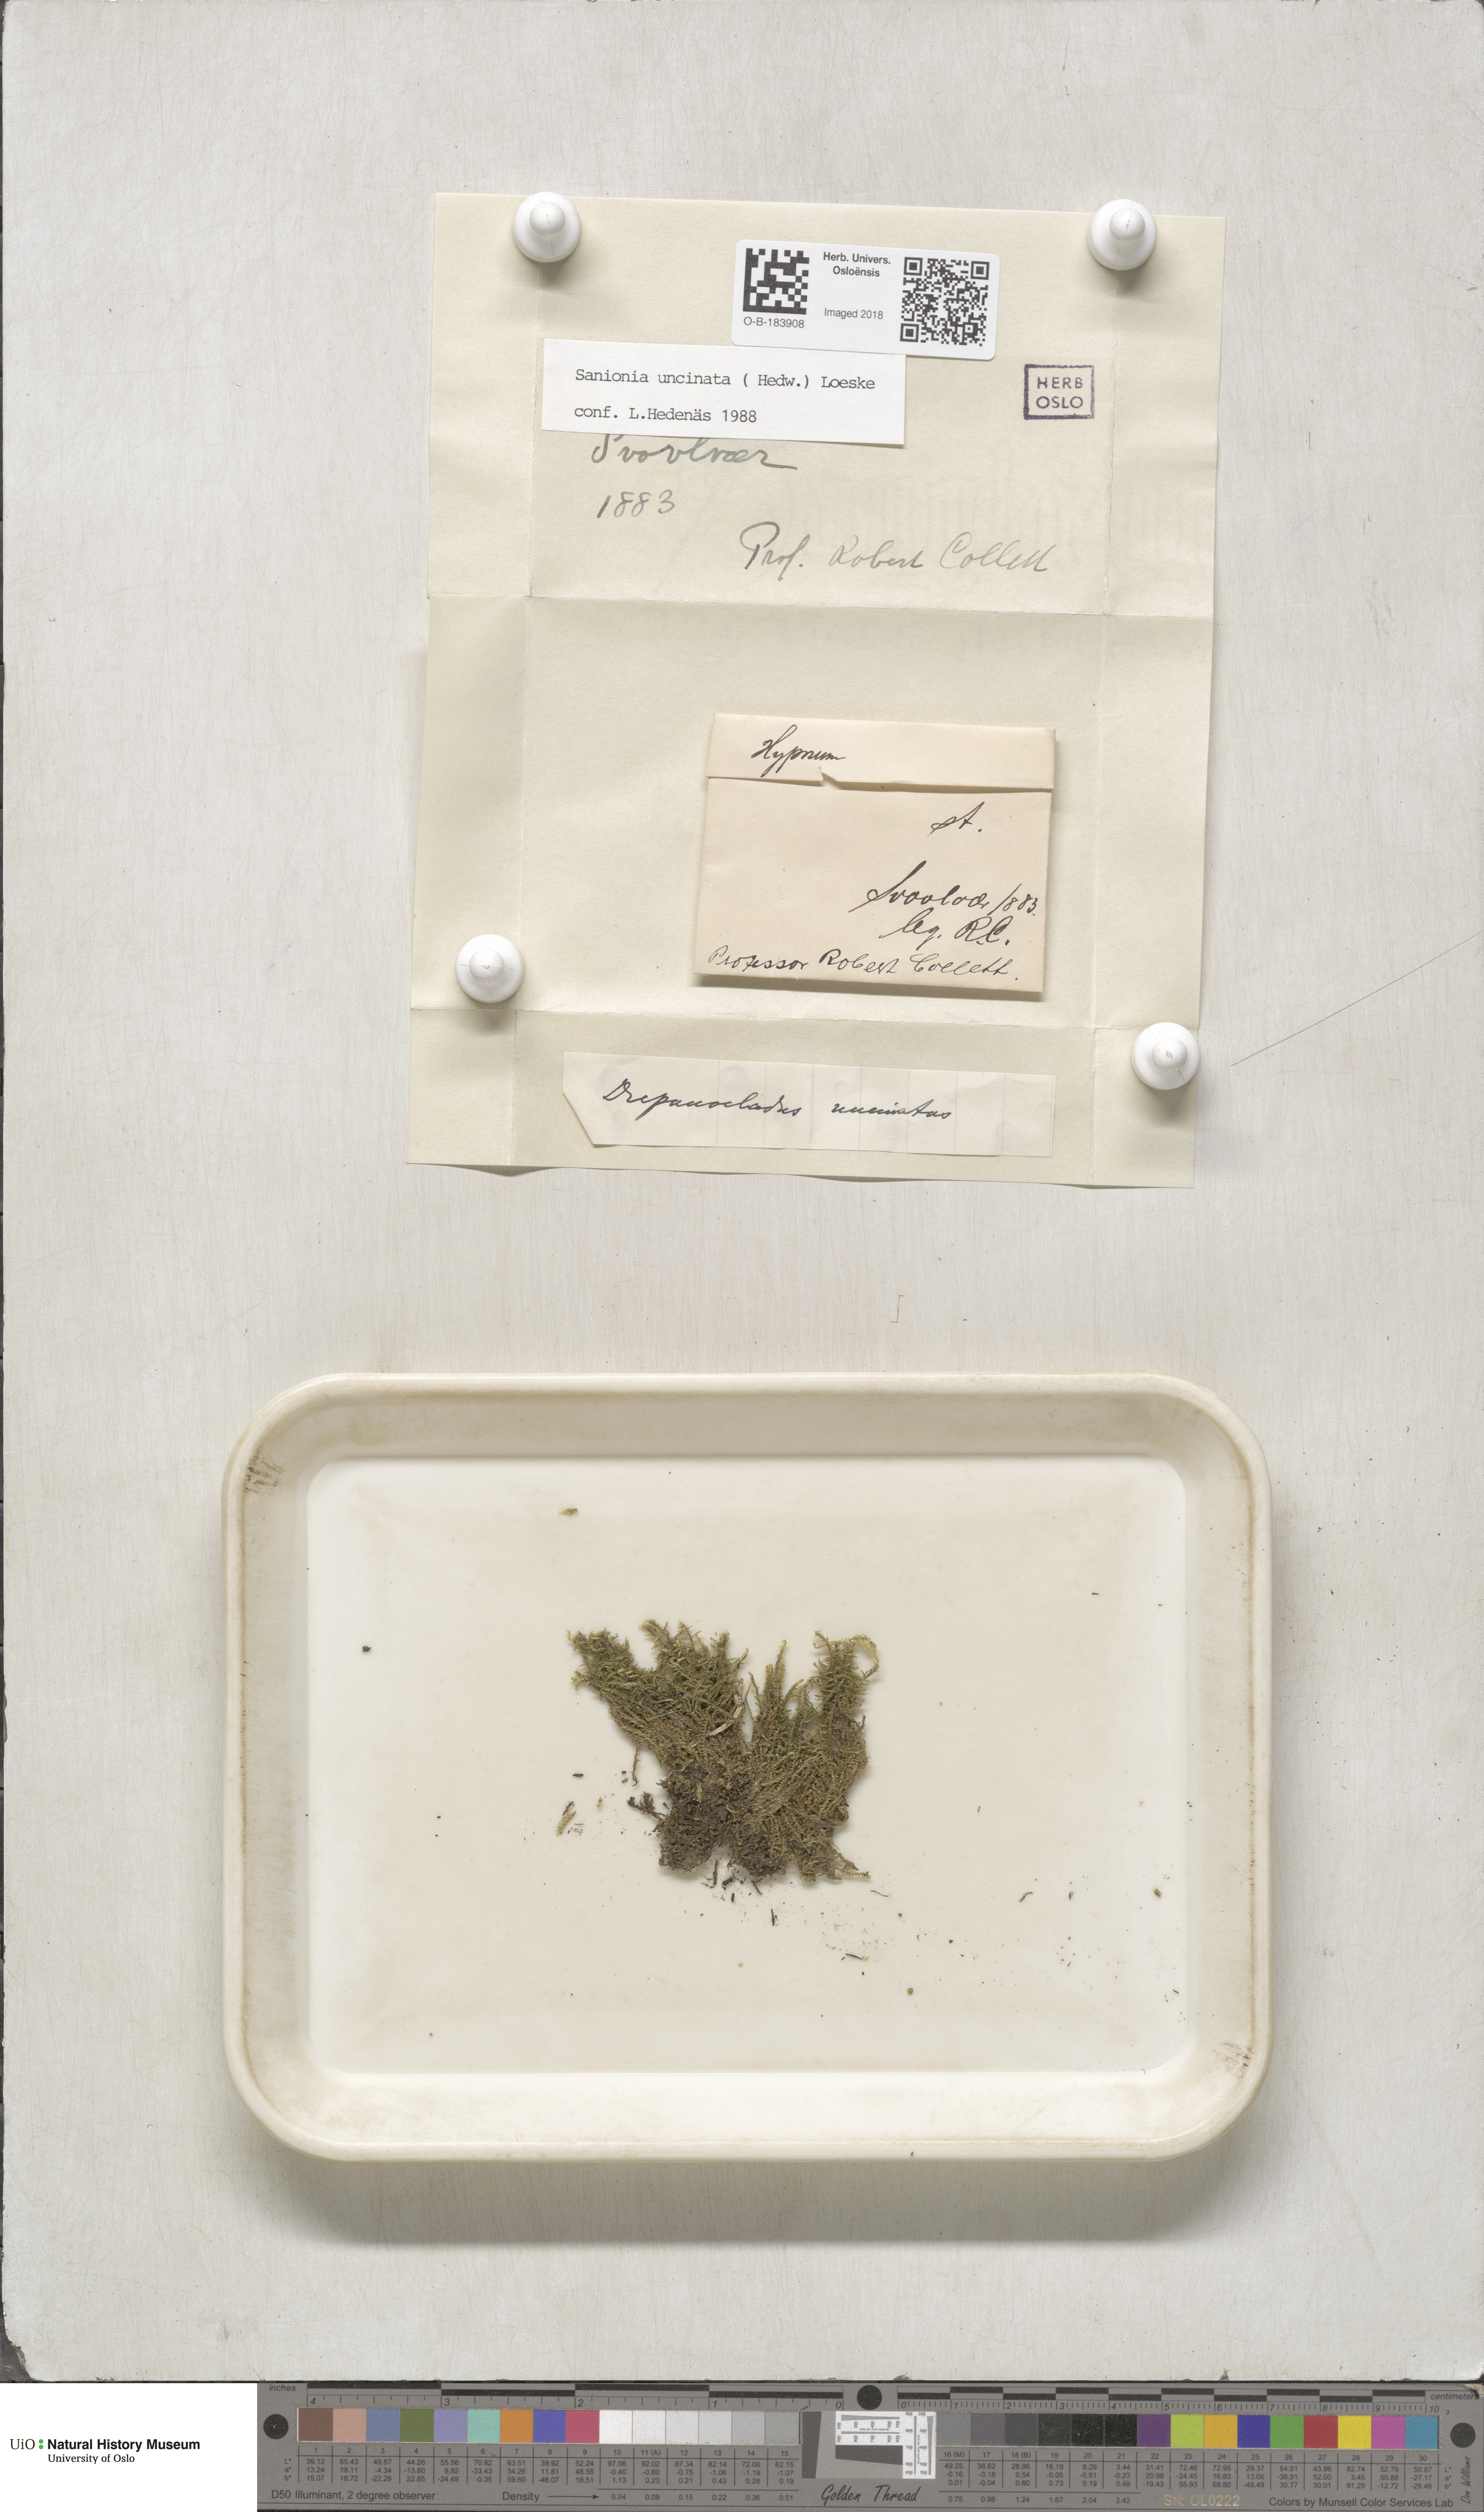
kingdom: Plantae
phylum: Bryophyta
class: Bryopsida
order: Hypnales
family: Scorpidiaceae
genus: Sanionia
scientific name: Sanionia uncinata
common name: Sickle moss
